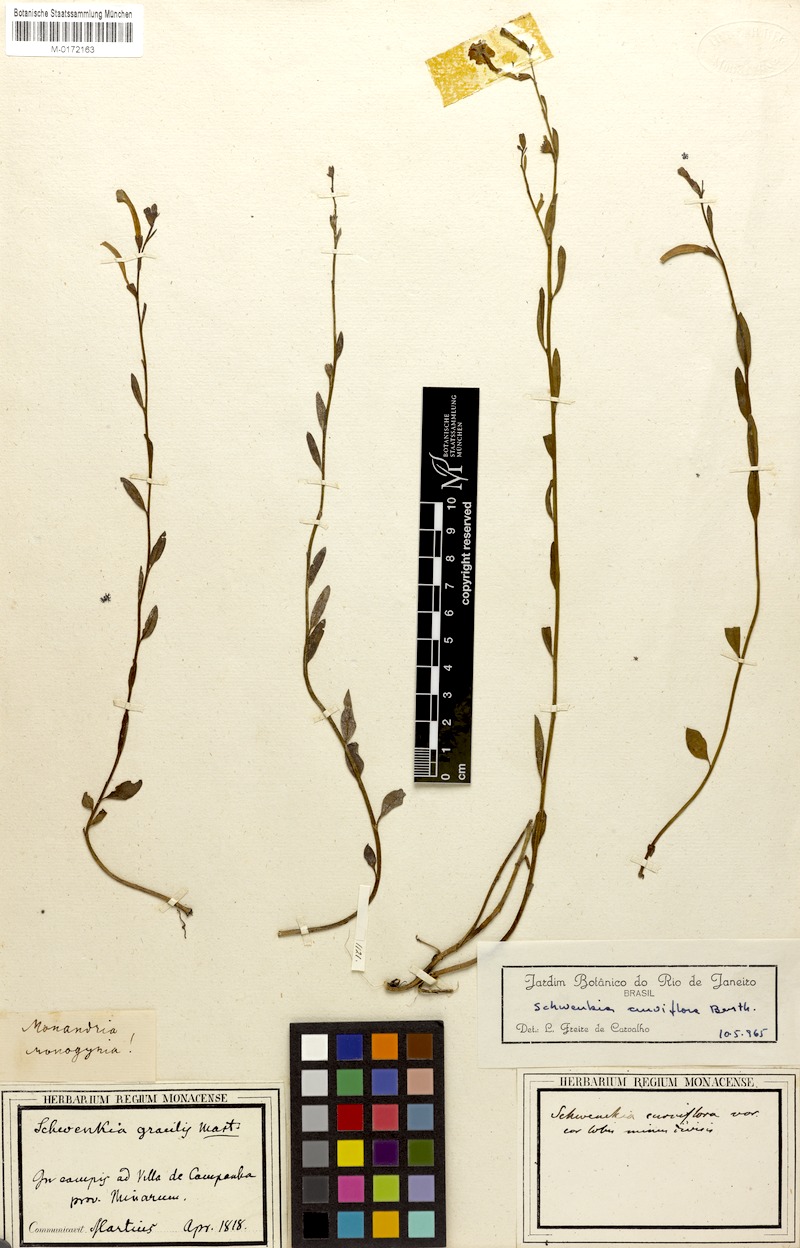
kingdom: Plantae
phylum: Tracheophyta
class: Magnoliopsida
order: Solanales
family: Solanaceae
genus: Schwenckia
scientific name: Schwenckia curviflora
